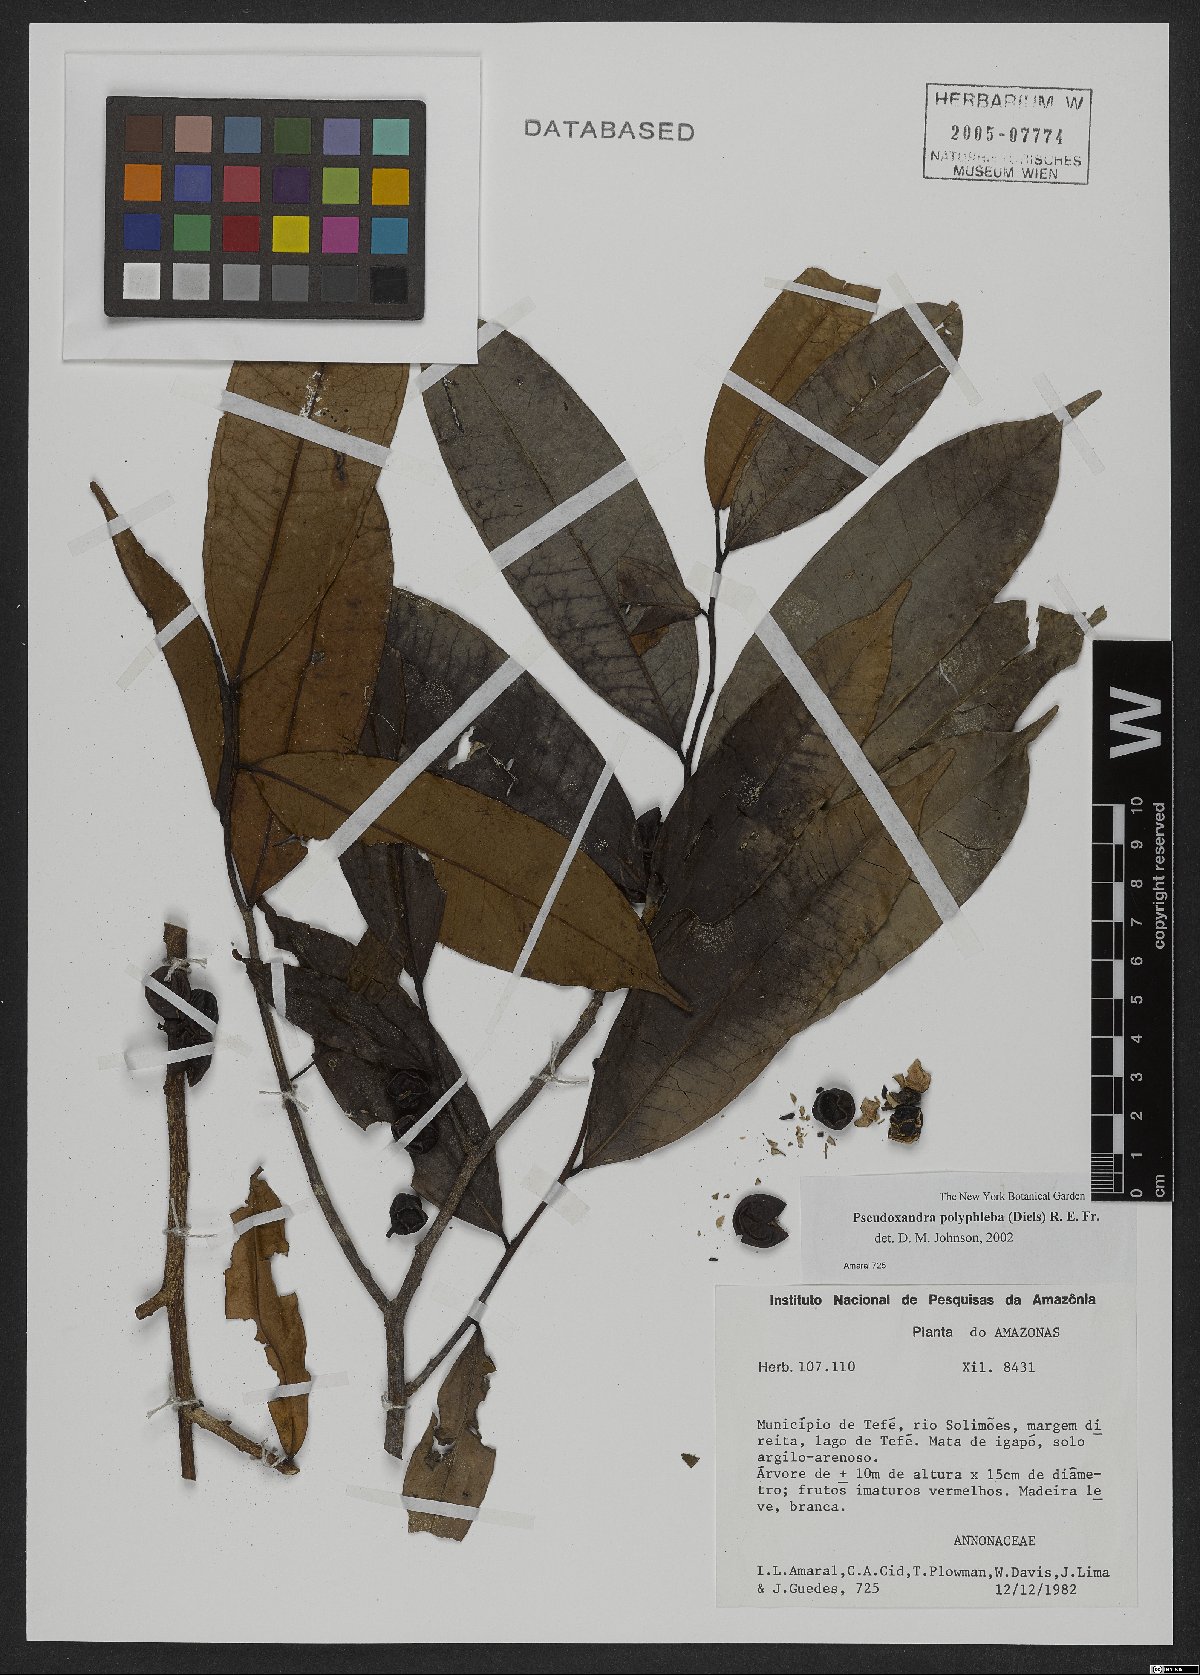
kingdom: Plantae
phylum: Tracheophyta
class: Magnoliopsida
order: Magnoliales
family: Annonaceae
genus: Pseudoxandra
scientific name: Pseudoxandra polyphleba
